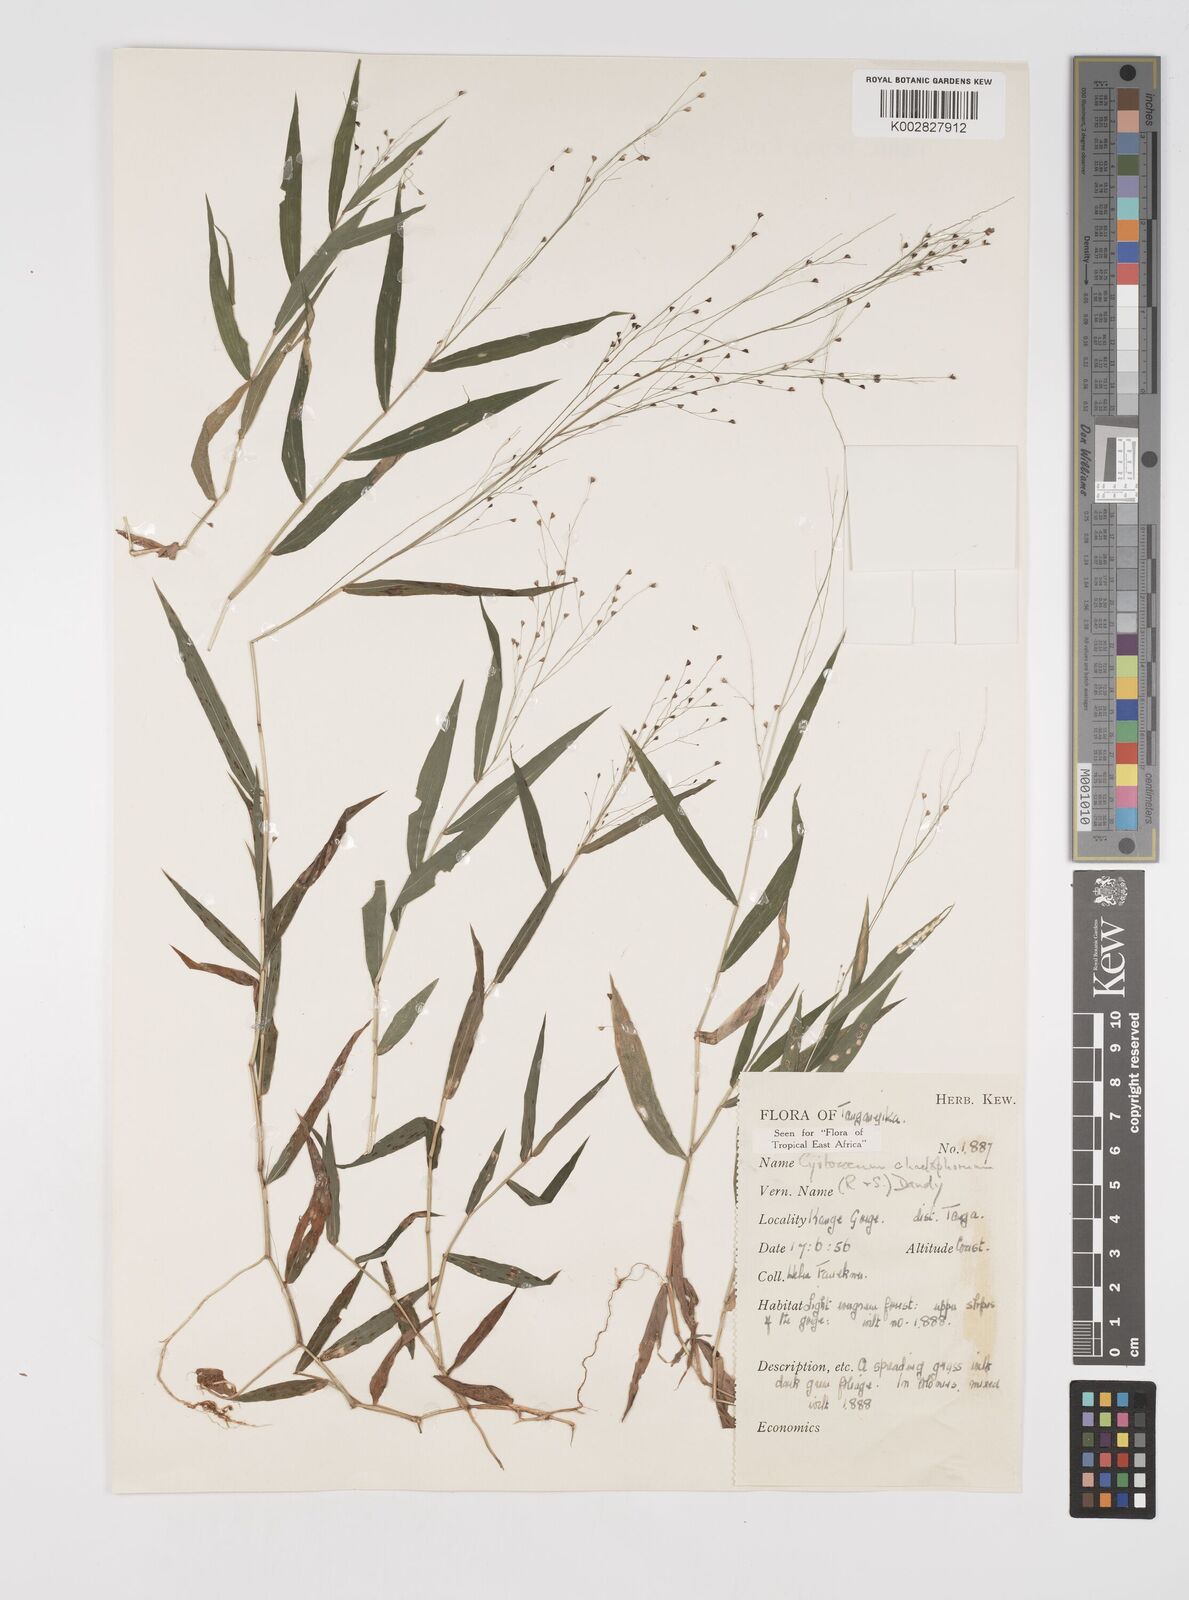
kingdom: Plantae
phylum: Tracheophyta
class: Liliopsida
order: Poales
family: Poaceae
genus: Cyrtococcum
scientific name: Cyrtococcum chaetophoron
